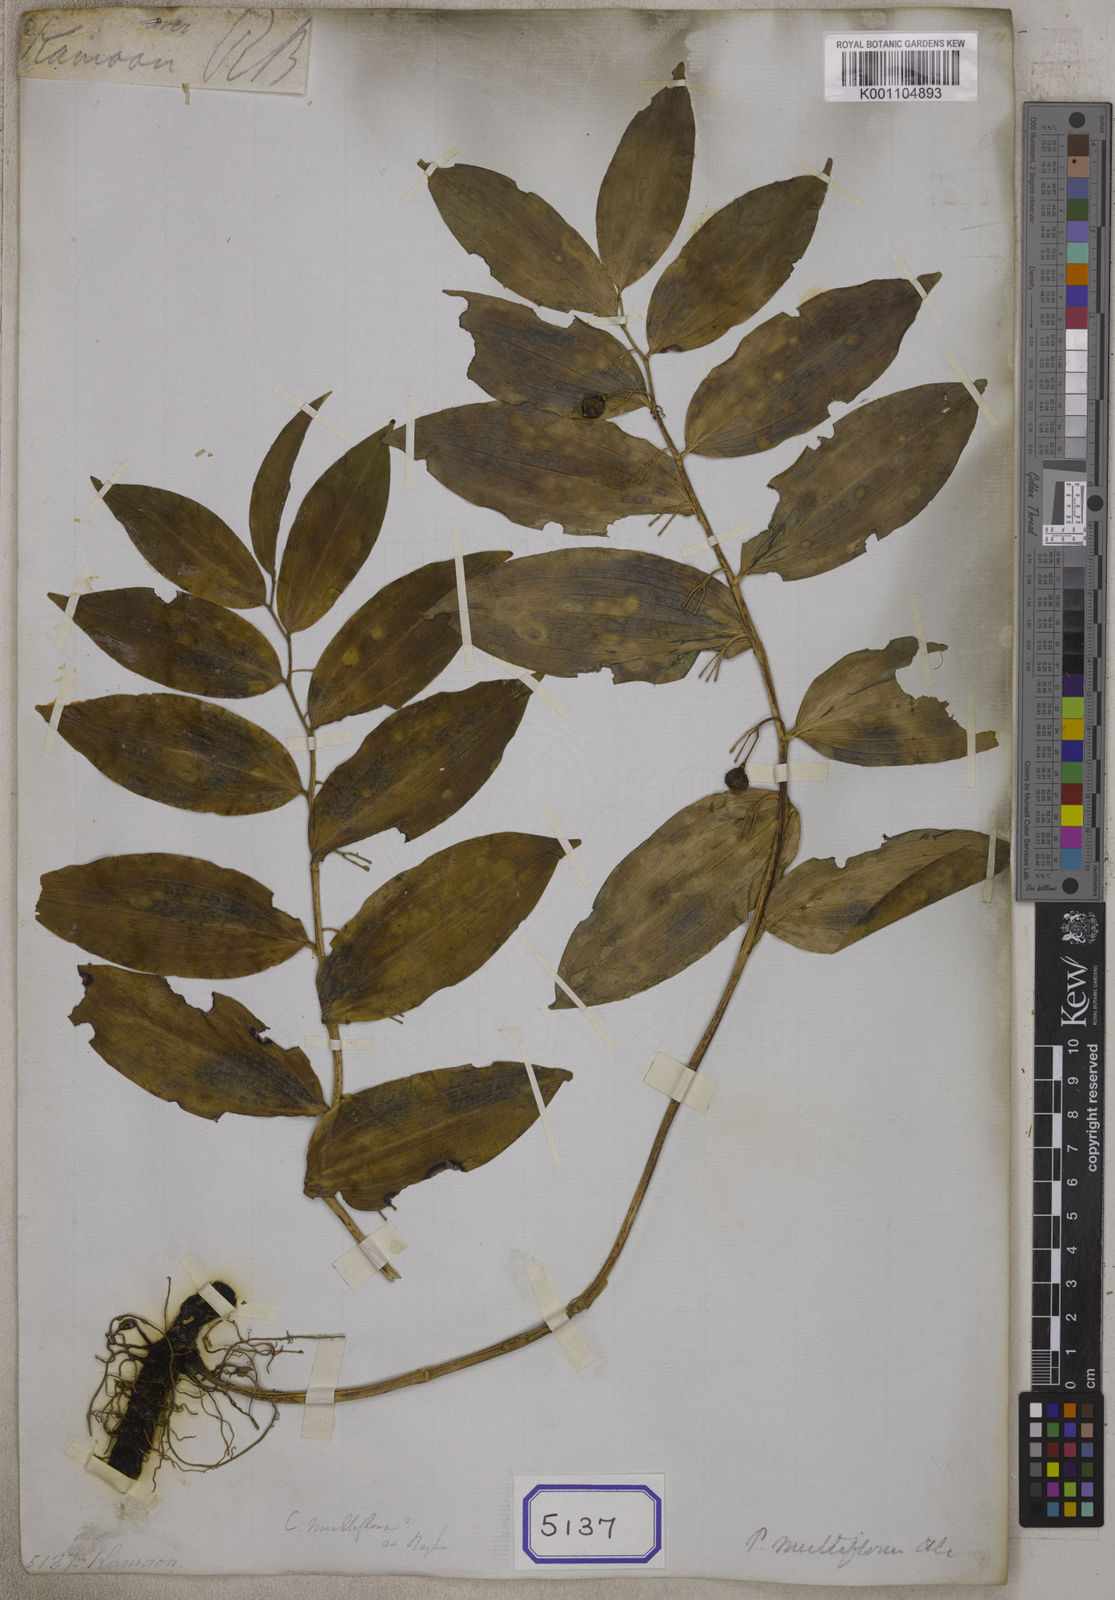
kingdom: Plantae
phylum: Tracheophyta
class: Liliopsida
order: Asparagales
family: Asparagaceae
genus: Polygonatum
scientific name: Polygonatum multiflorum
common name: Solomon's-seal
